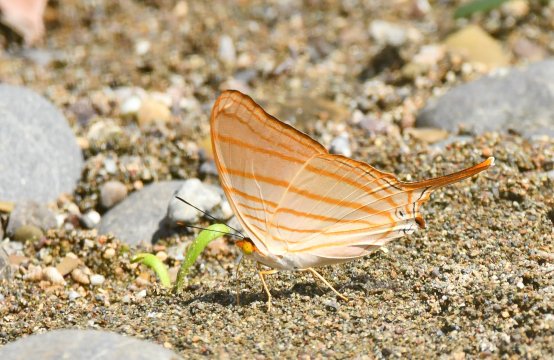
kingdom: Animalia
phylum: Arthropoda
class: Insecta
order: Lepidoptera
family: Nymphalidae
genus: Marpesia
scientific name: Marpesia berania
